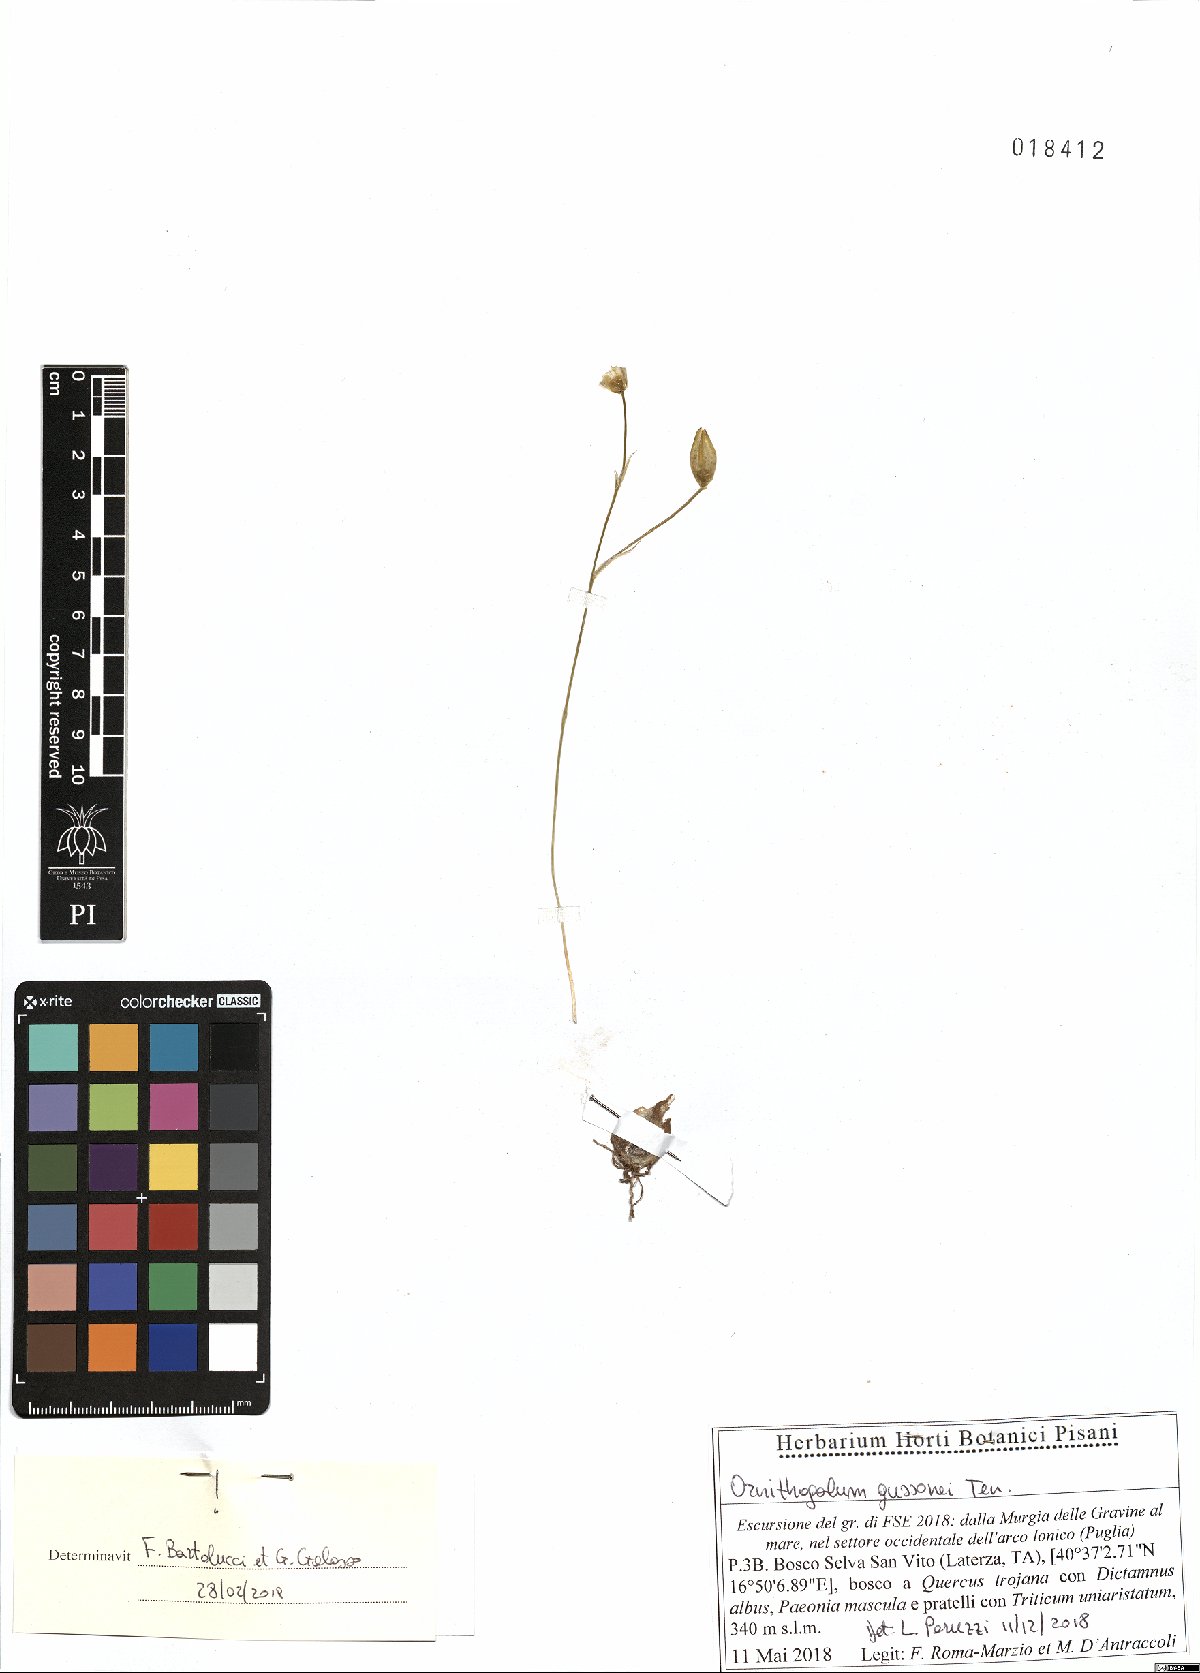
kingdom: Plantae
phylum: Tracheophyta
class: Liliopsida
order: Asparagales
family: Asparagaceae
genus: Ornithogalum
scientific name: Ornithogalum gussonei
